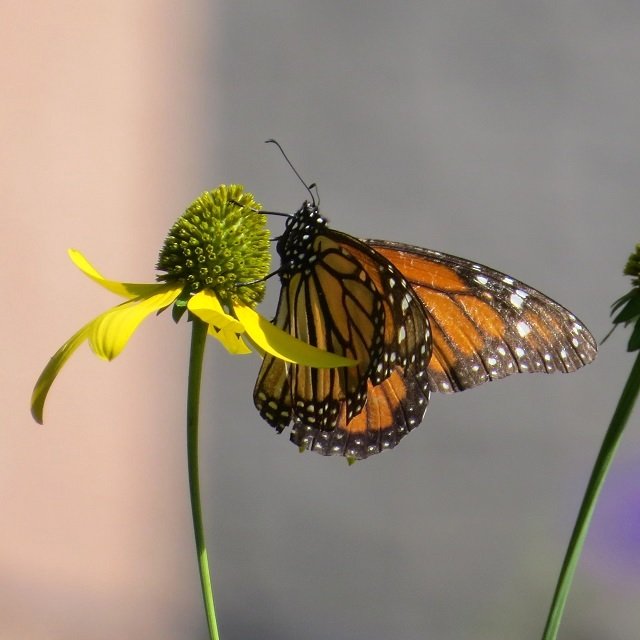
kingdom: Animalia
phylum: Arthropoda
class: Insecta
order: Lepidoptera
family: Nymphalidae
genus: Danaus
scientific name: Danaus plexippus
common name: Monarch
